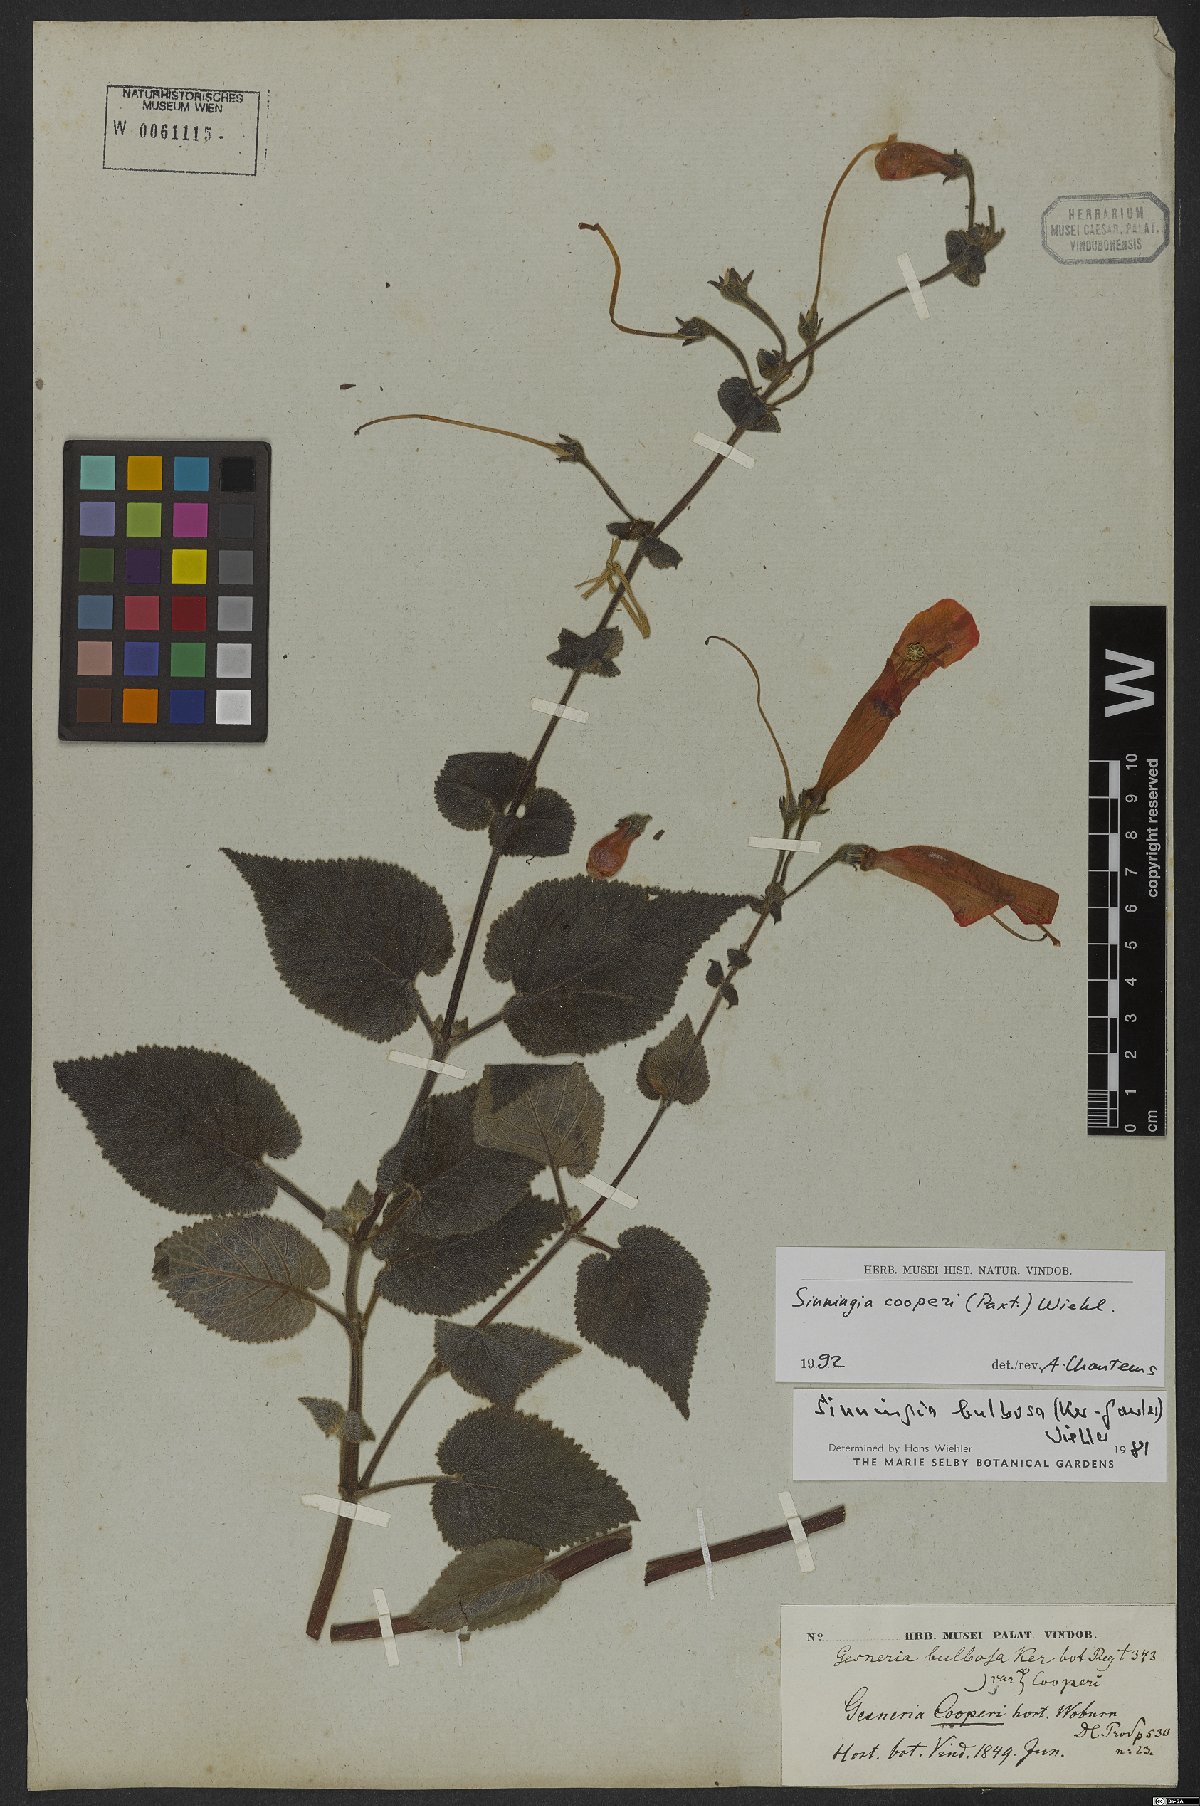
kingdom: Plantae
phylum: Tracheophyta
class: Magnoliopsida
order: Lamiales
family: Gesneriaceae
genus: Sinningia
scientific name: Sinningia cooperi
